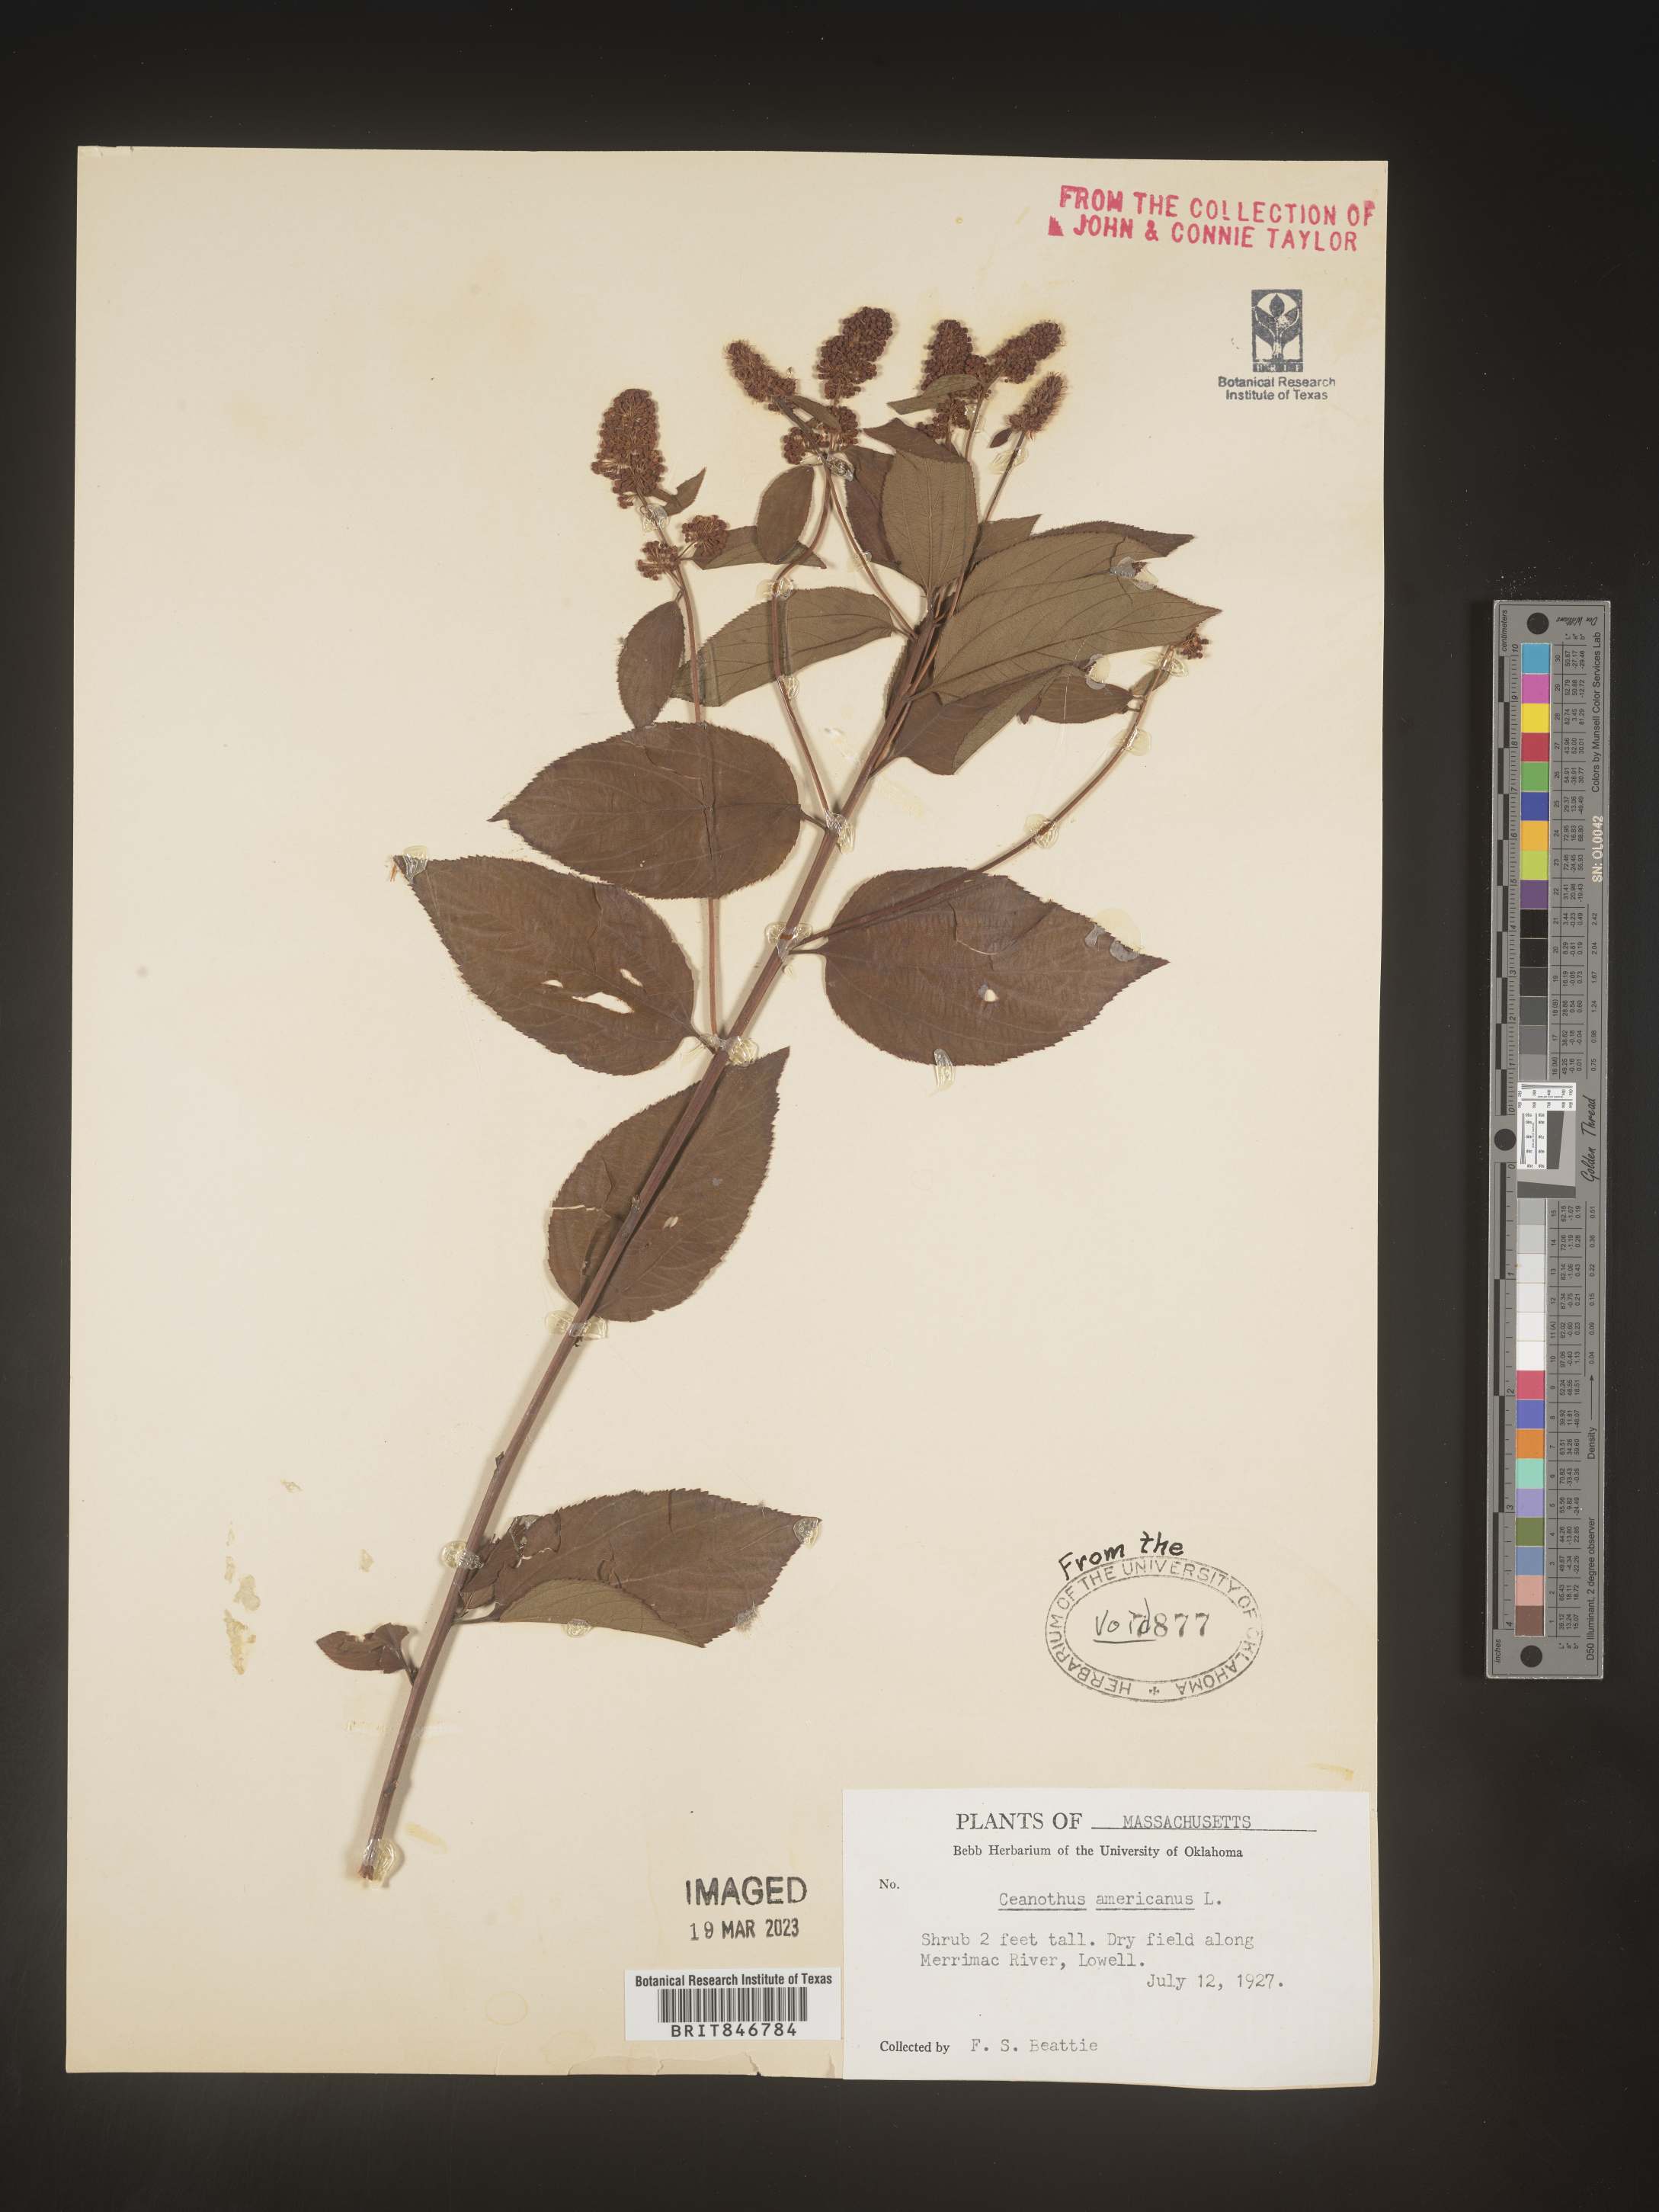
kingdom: Plantae
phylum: Tracheophyta
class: Magnoliopsida
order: Rosales
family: Rhamnaceae
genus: Ceanothus
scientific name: Ceanothus americanus
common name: Redroot
